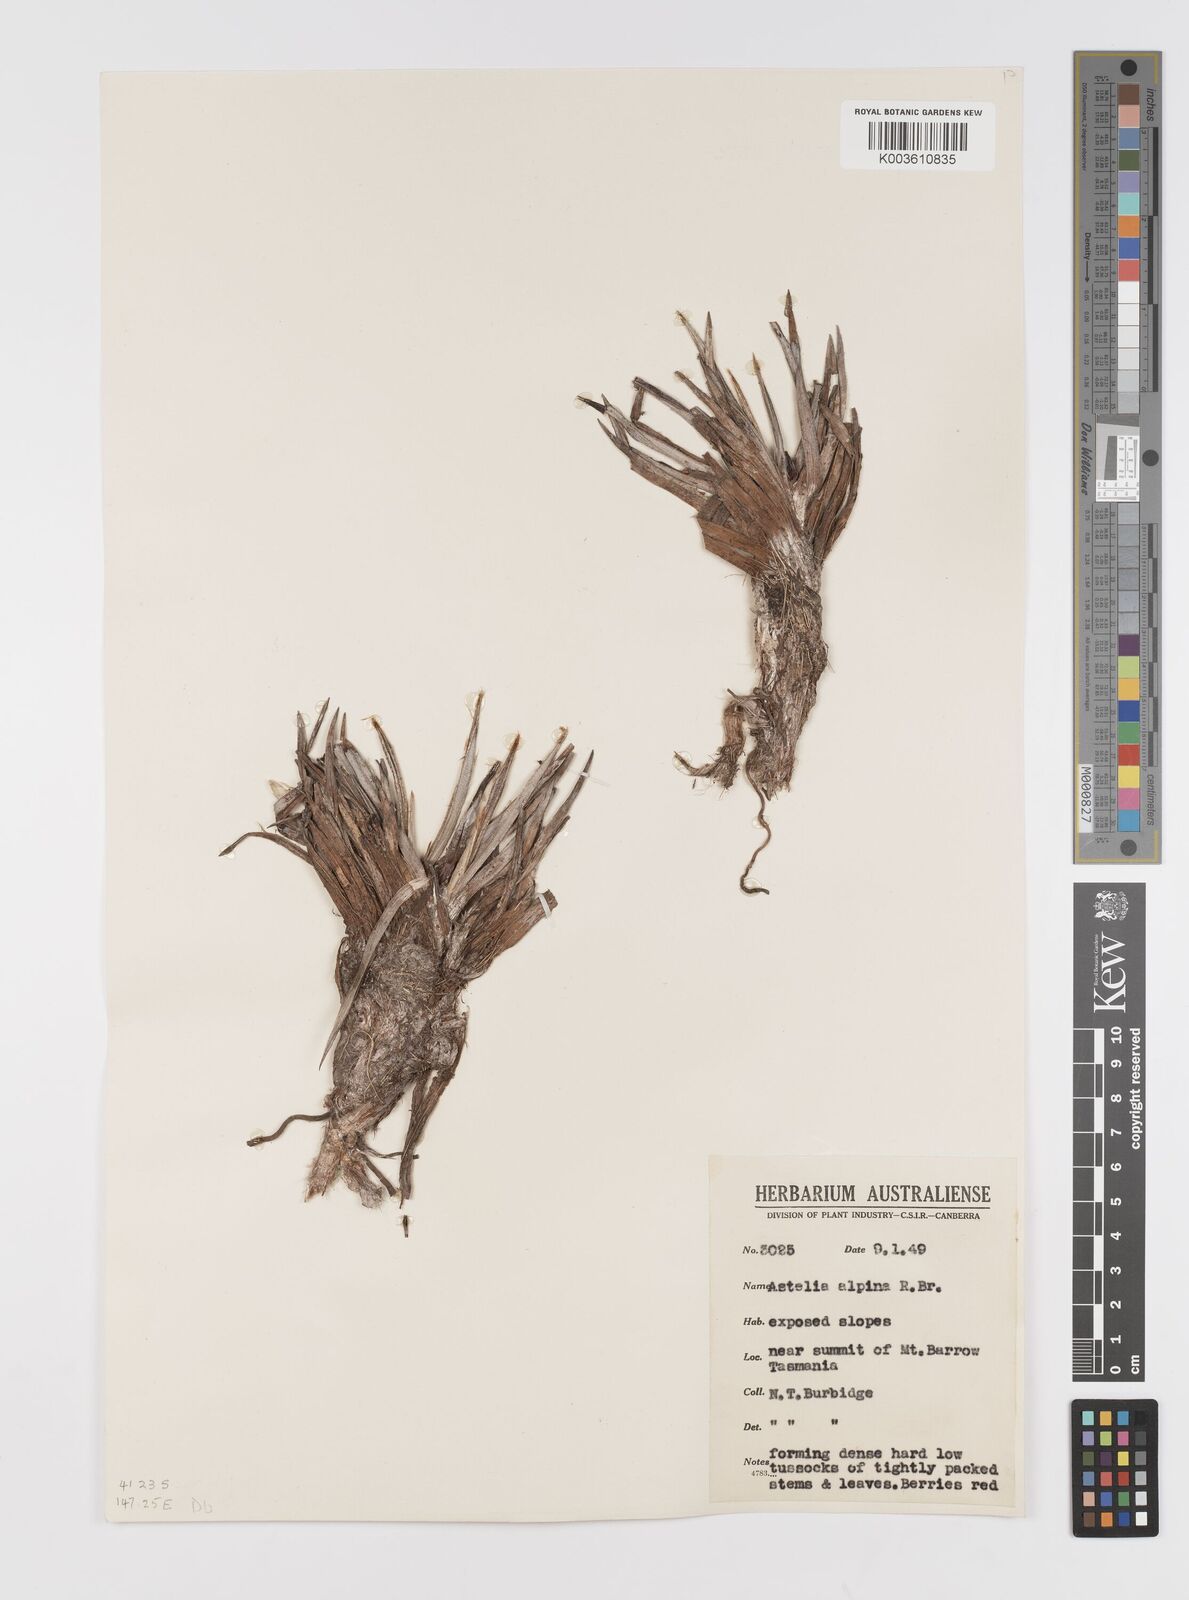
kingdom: Plantae
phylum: Tracheophyta
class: Liliopsida
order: Asparagales
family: Asteliaceae
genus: Astelia
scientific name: Astelia alpina
